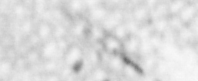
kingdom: Animalia
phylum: Chordata
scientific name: Chordata
